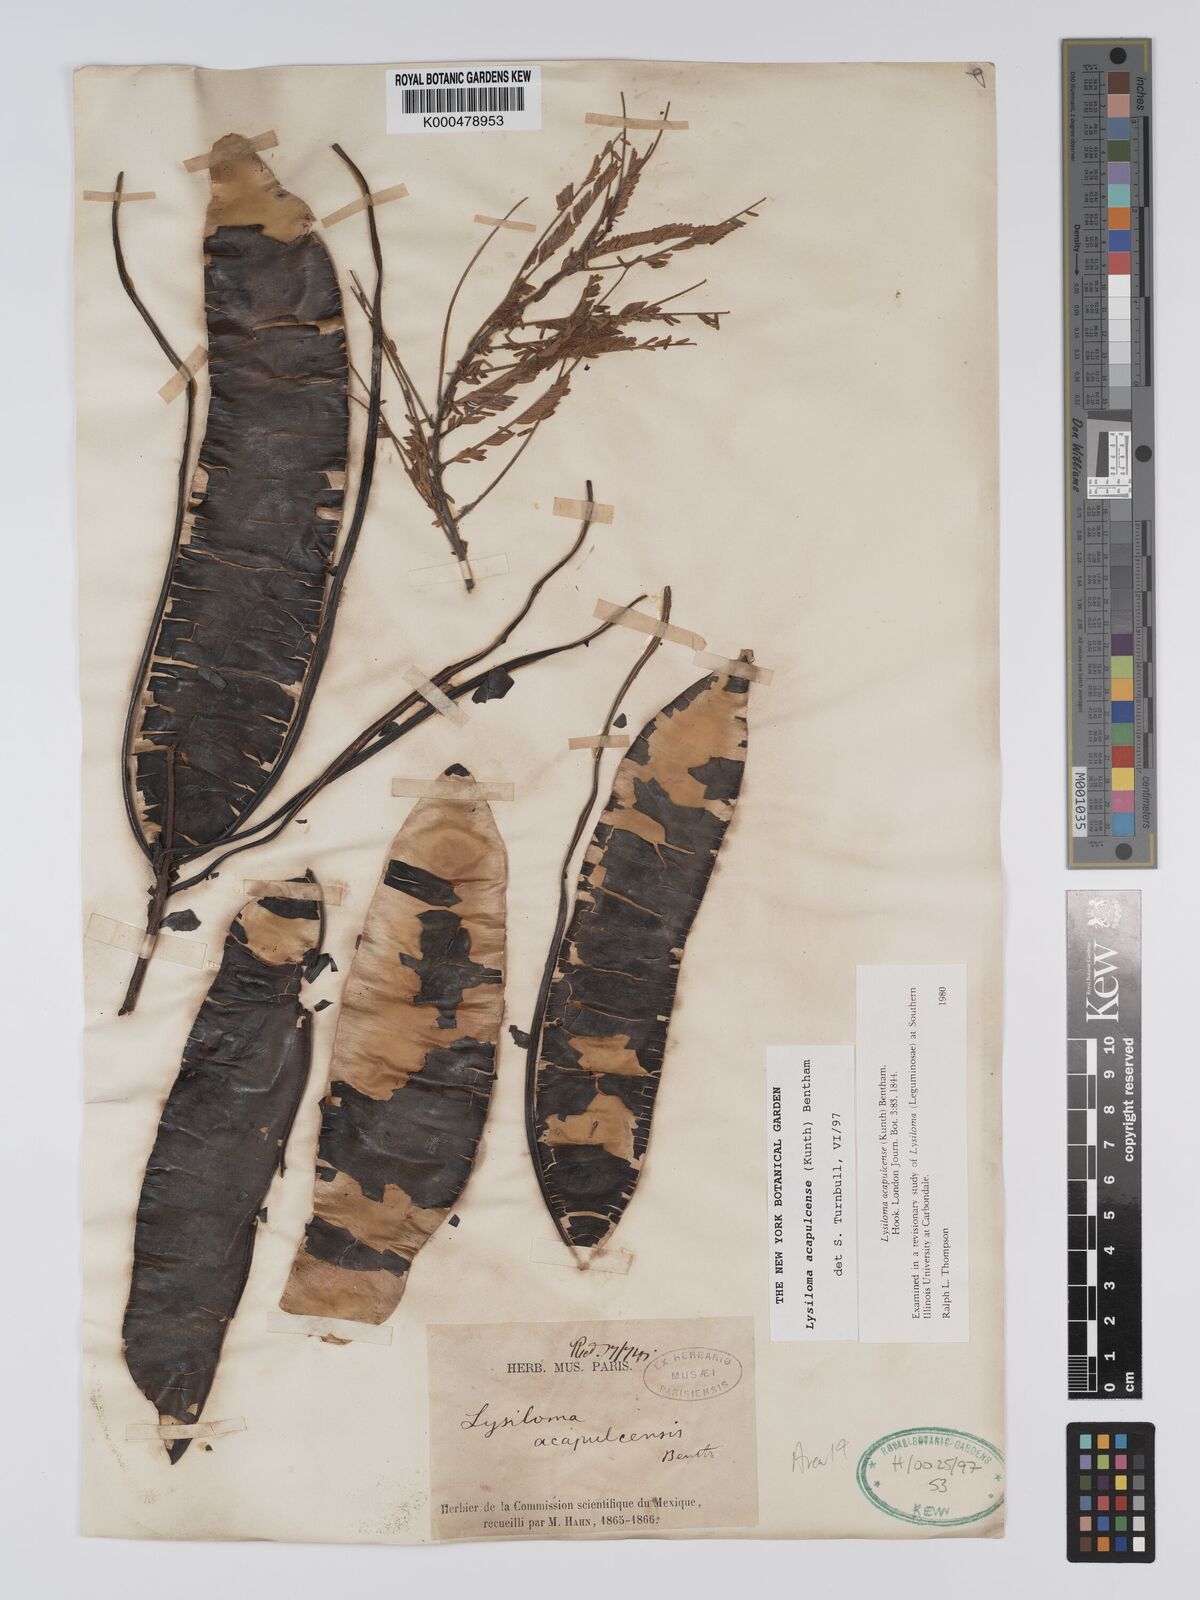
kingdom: Plantae
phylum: Tracheophyta
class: Magnoliopsida
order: Fabales
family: Fabaceae
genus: Lysiloma
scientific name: Lysiloma
